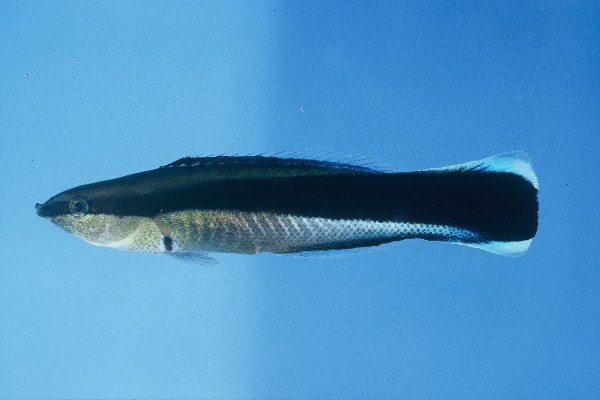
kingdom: Animalia
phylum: Chordata
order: Perciformes
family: Labridae
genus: Labroides
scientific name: Labroides dimidiatus
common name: Blue diesel wrasse
